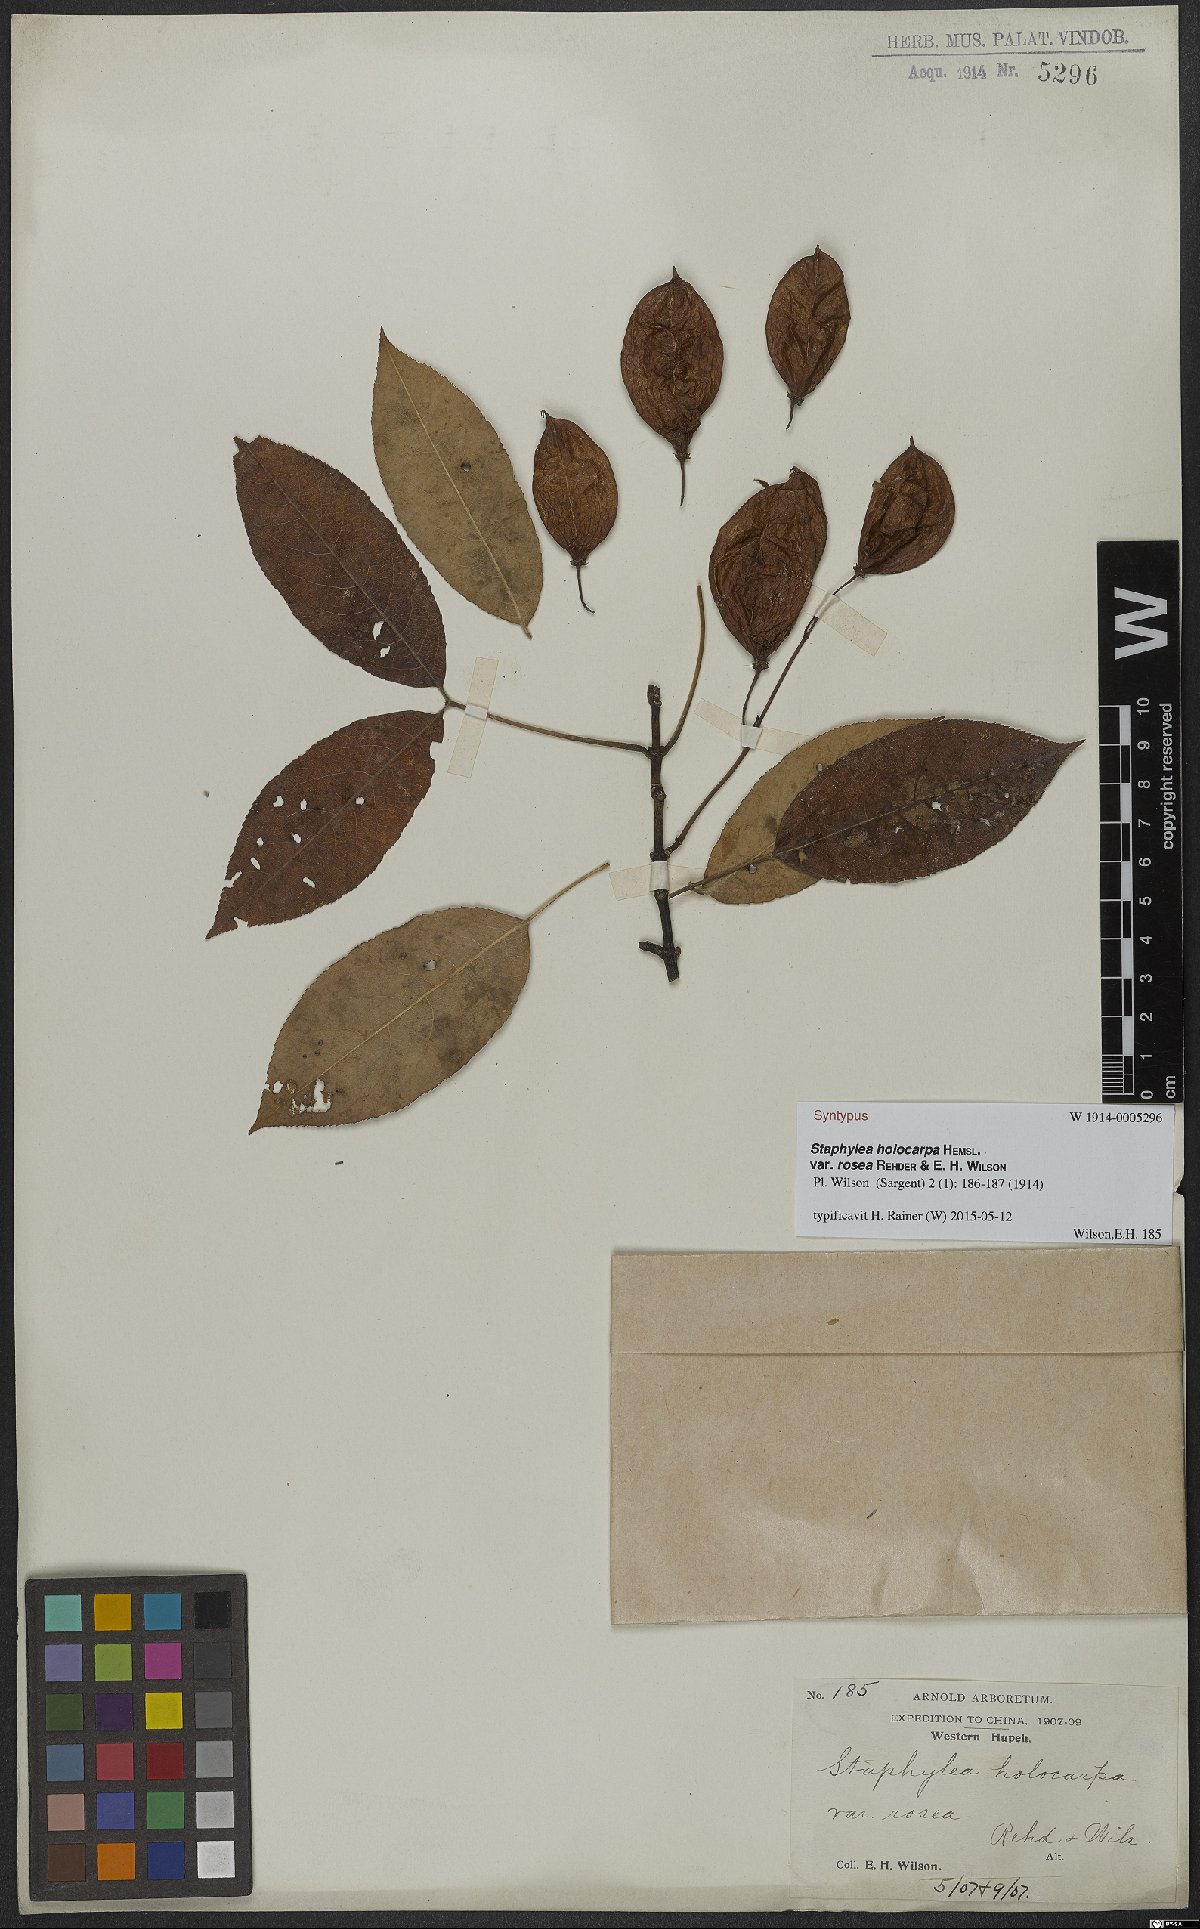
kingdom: Plantae
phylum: Tracheophyta
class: Magnoliopsida
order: Crossosomatales
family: Staphyleaceae
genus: Staphylea
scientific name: Staphylea holocarpa
